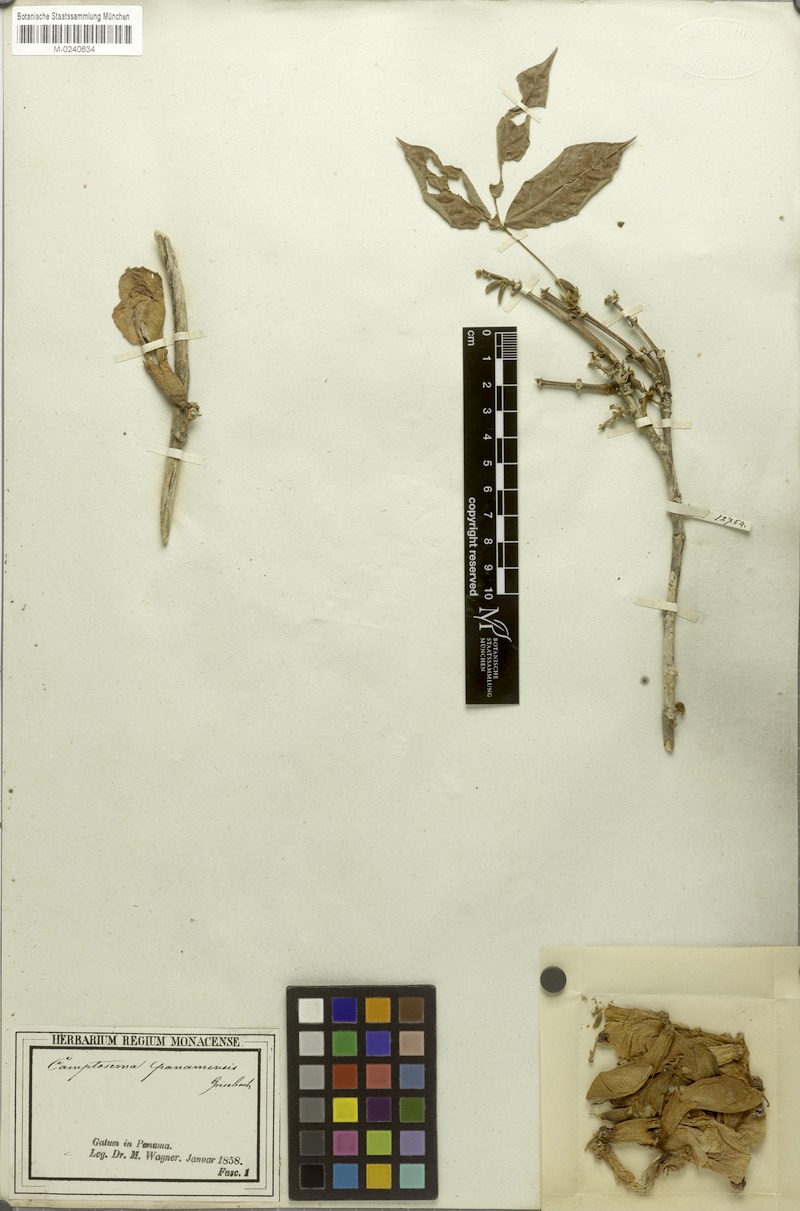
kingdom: Plantae
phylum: Tracheophyta
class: Magnoliopsida
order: Fabales
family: Fabaceae
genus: Camptosema
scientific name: Camptosema panamaense
